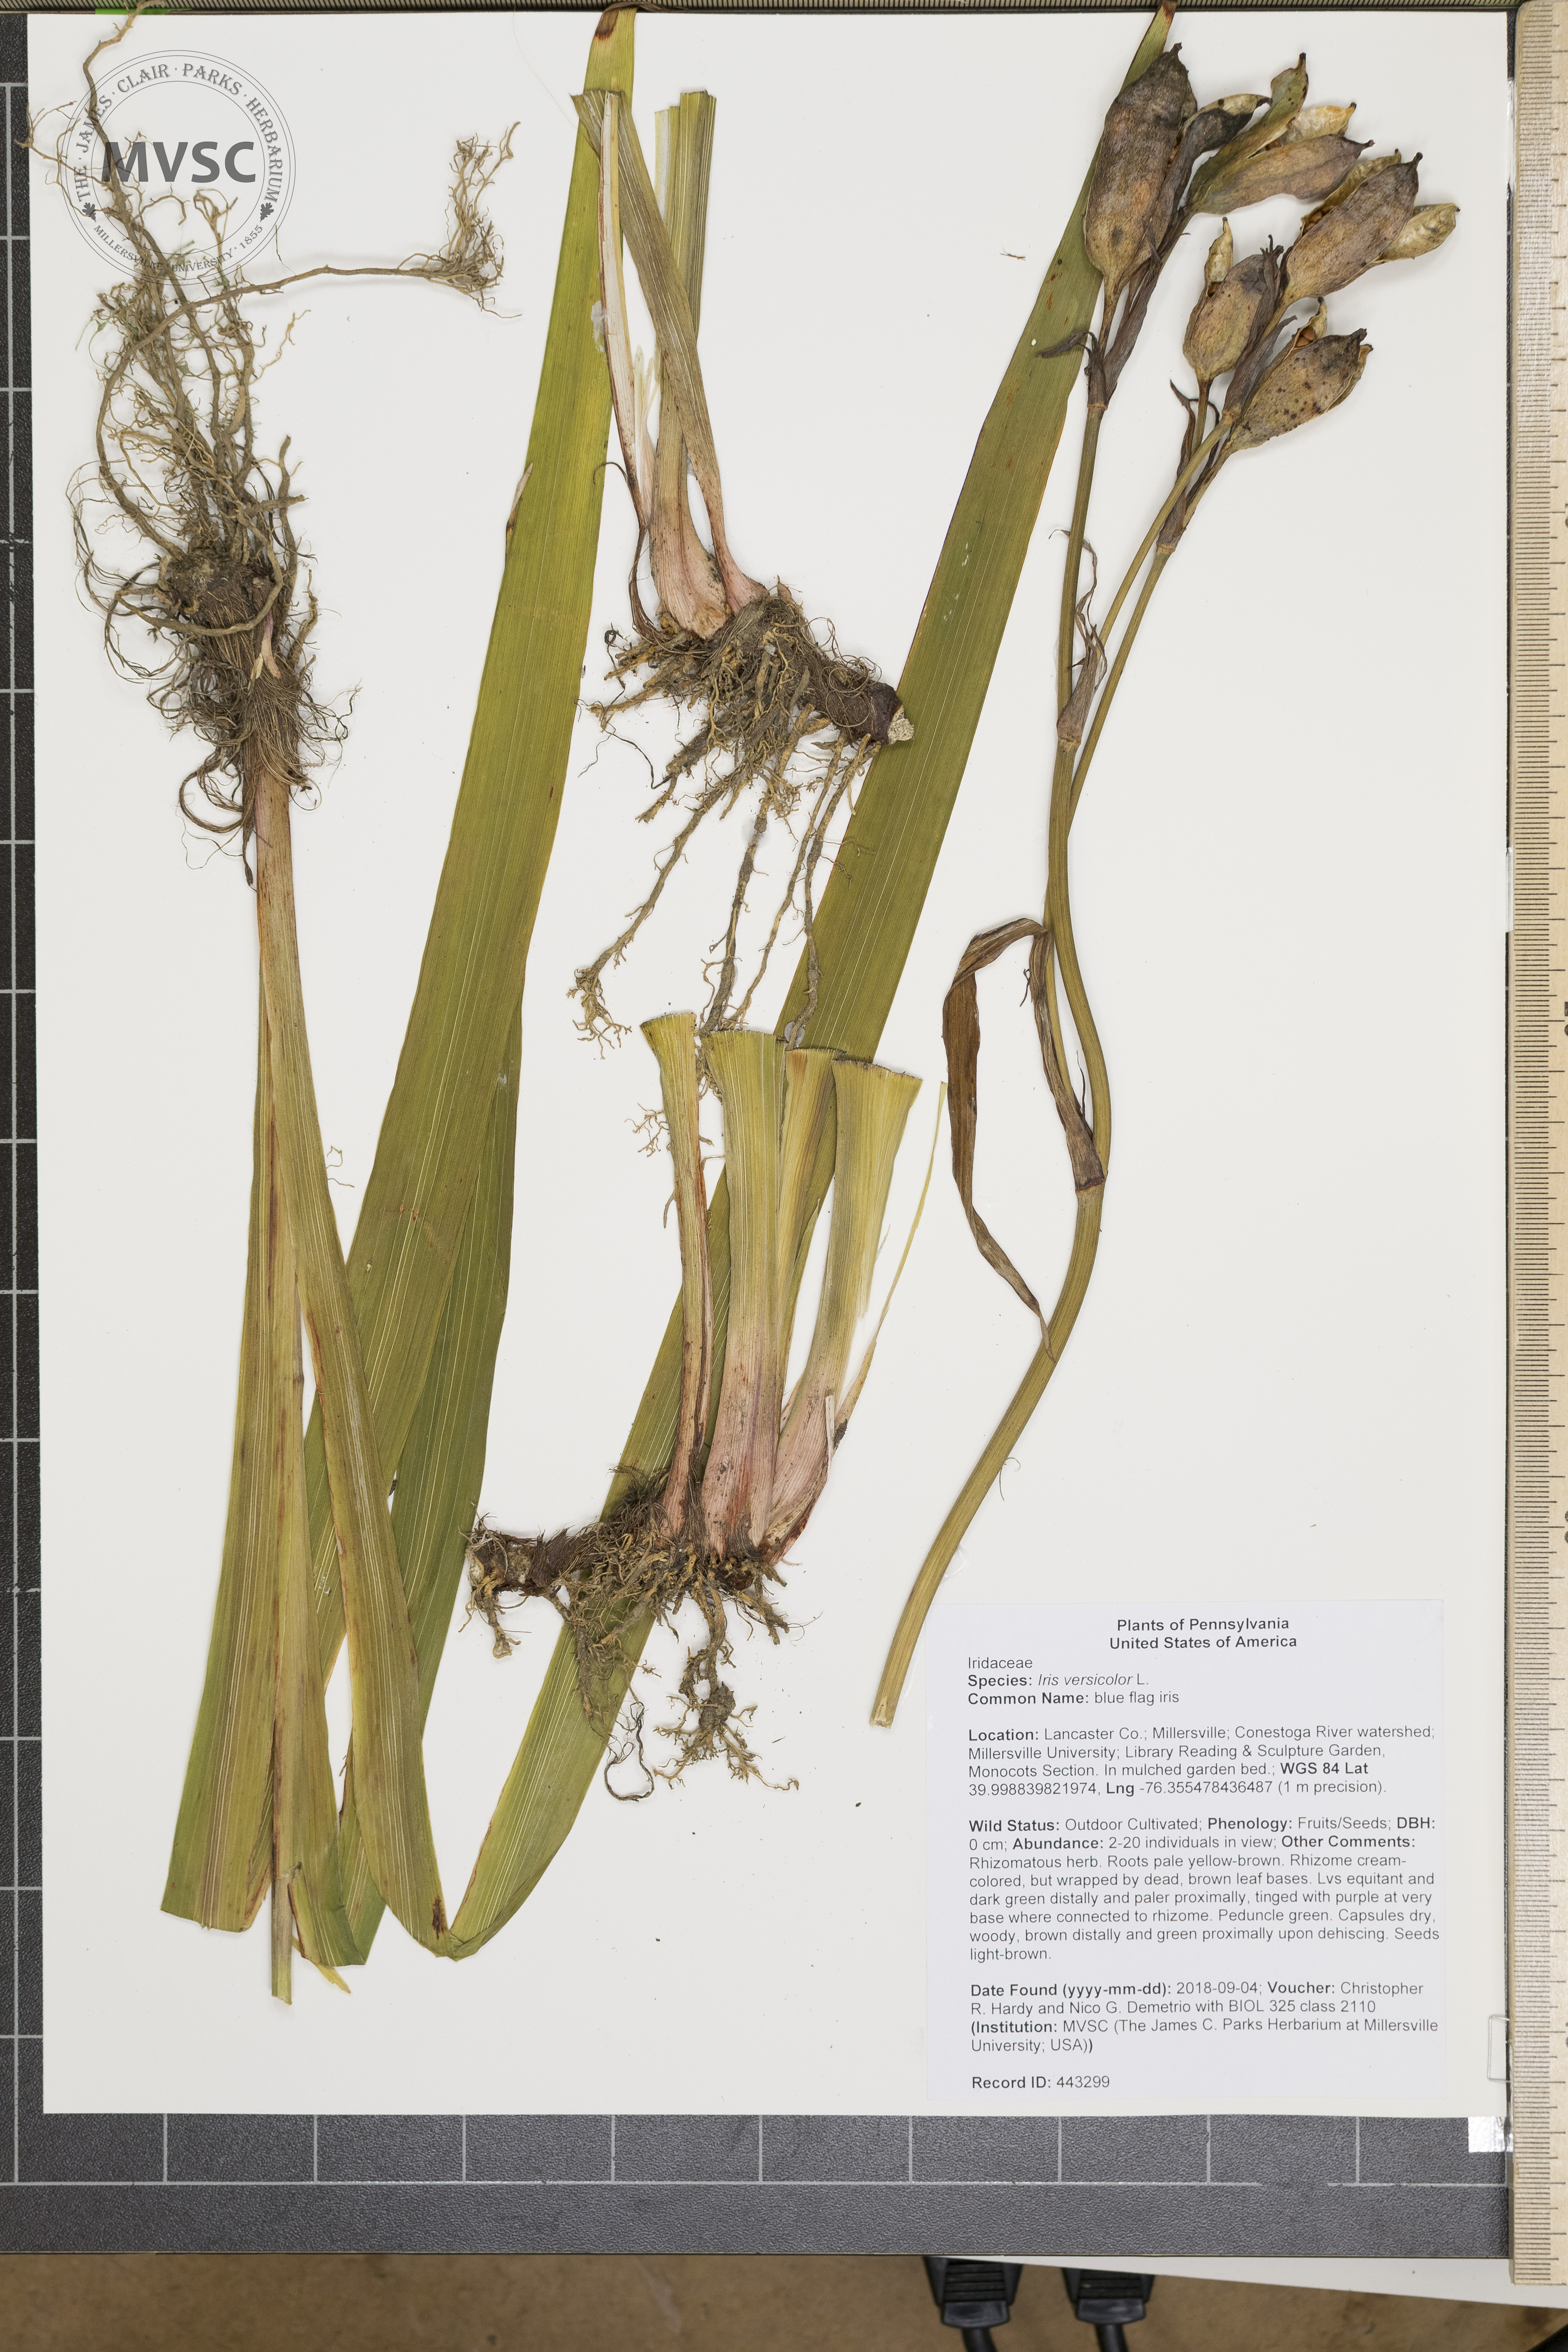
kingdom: Plantae
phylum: Tracheophyta
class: Liliopsida
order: Asparagales
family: Iridaceae
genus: Iris
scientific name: Iris versicolor
